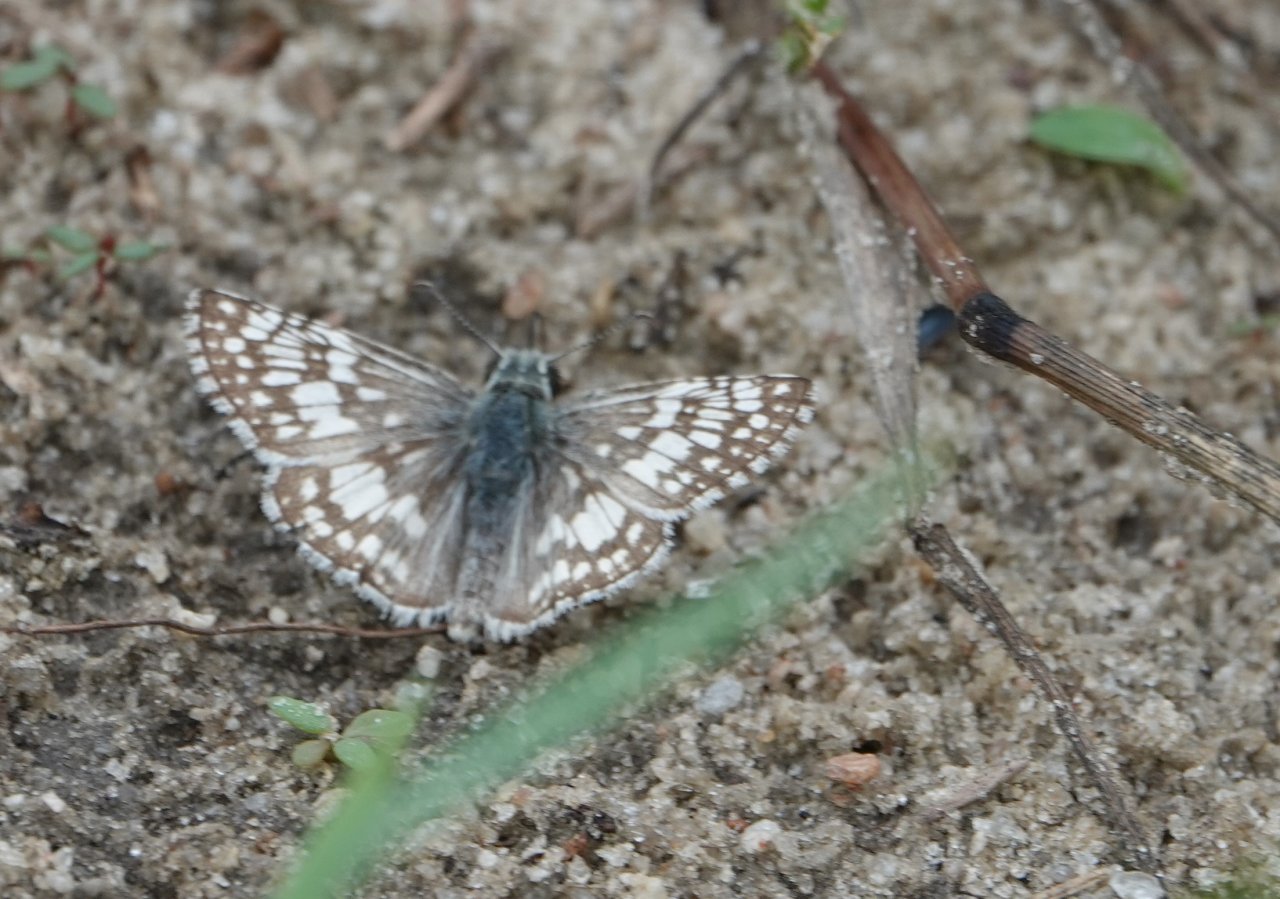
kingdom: Animalia
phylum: Arthropoda
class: Insecta
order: Lepidoptera
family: Hesperiidae
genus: Pyrgus
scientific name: Pyrgus communis
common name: White Checkered-Skipper
